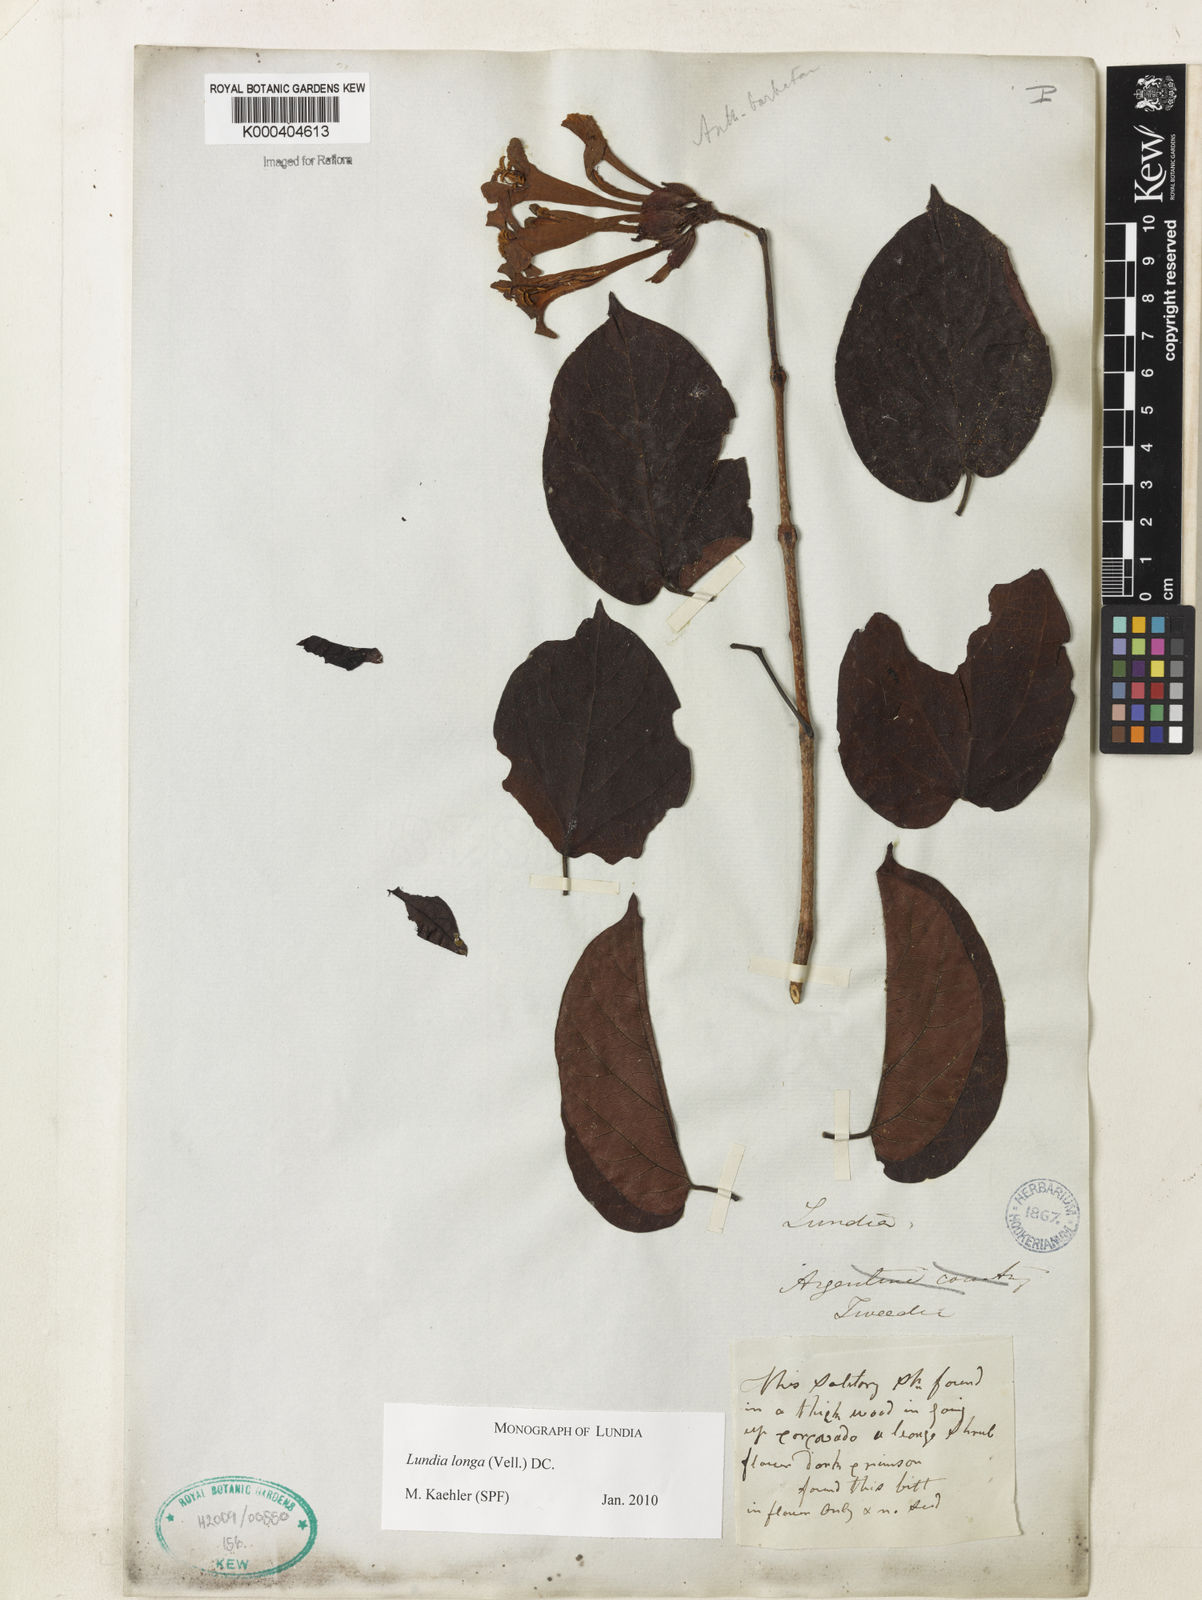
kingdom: Plantae
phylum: Tracheophyta
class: Magnoliopsida
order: Lamiales
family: Bignoniaceae
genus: Lundia
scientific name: Lundia longa
